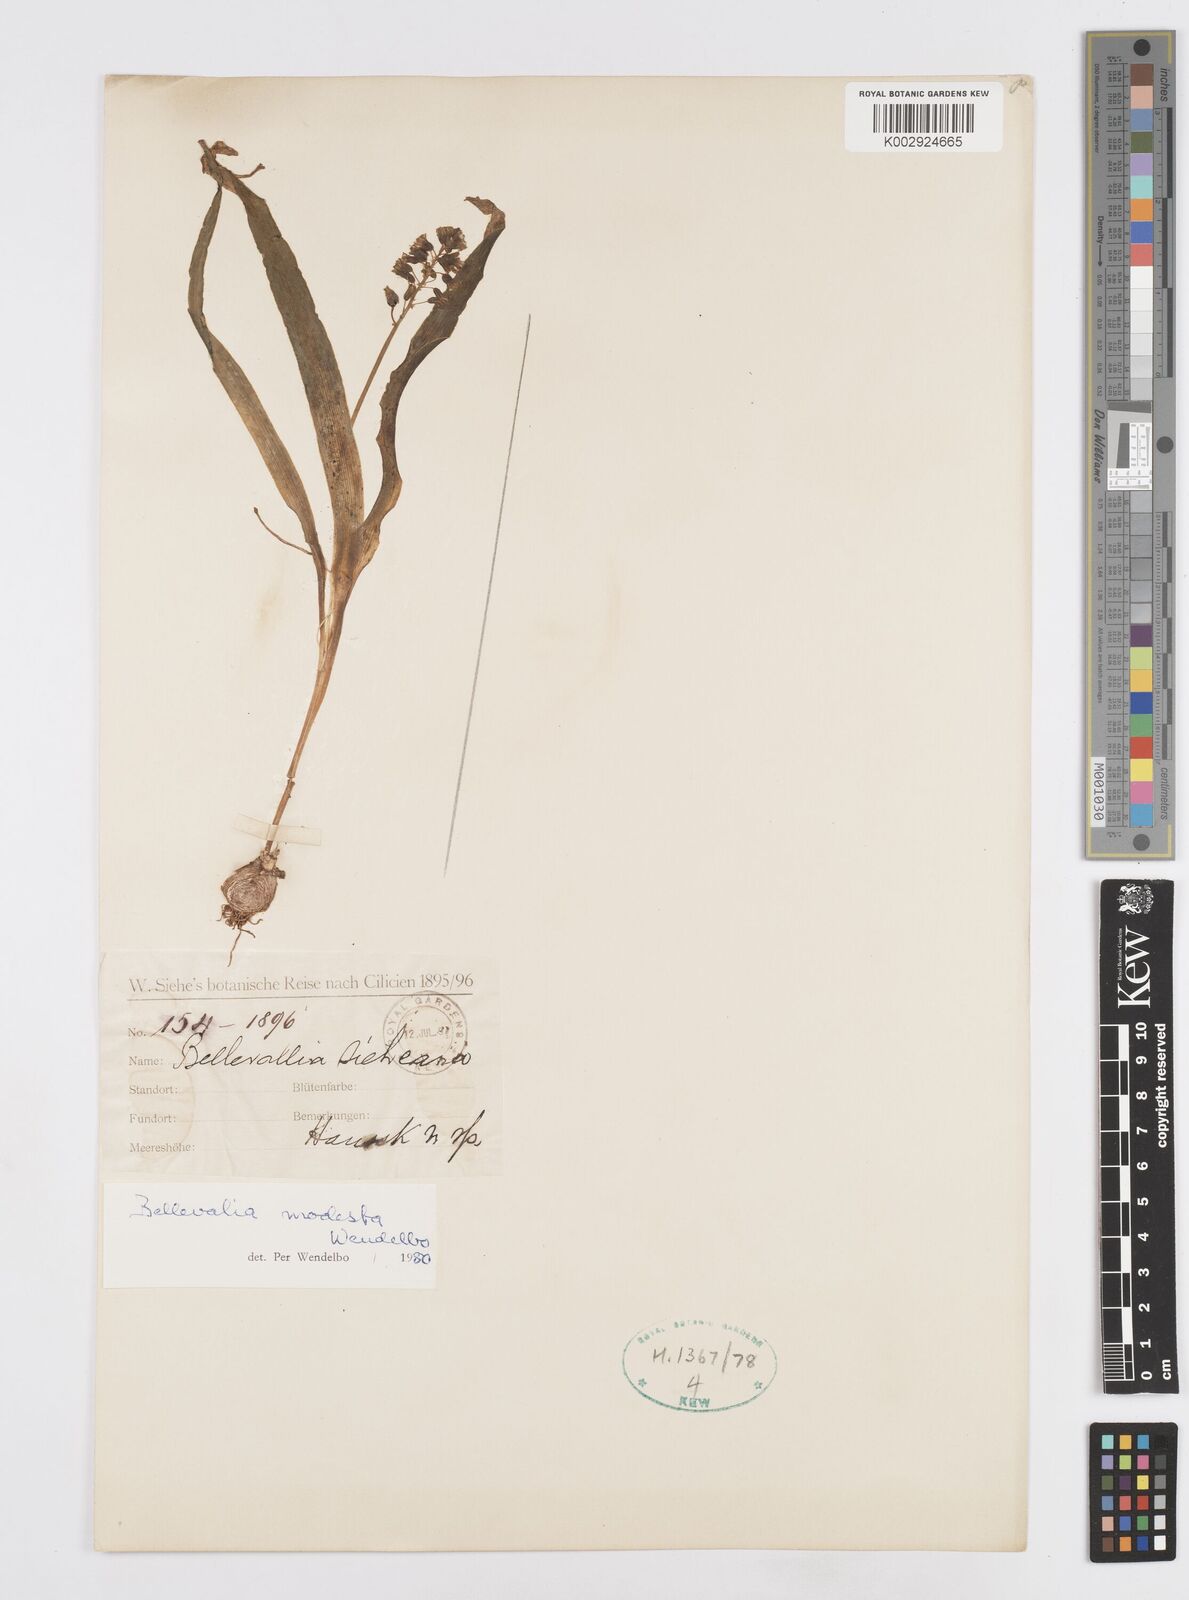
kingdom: Plantae
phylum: Tracheophyta
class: Liliopsida
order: Asparagales
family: Asparagaceae
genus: Bellevalia
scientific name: Bellevalia modesta
